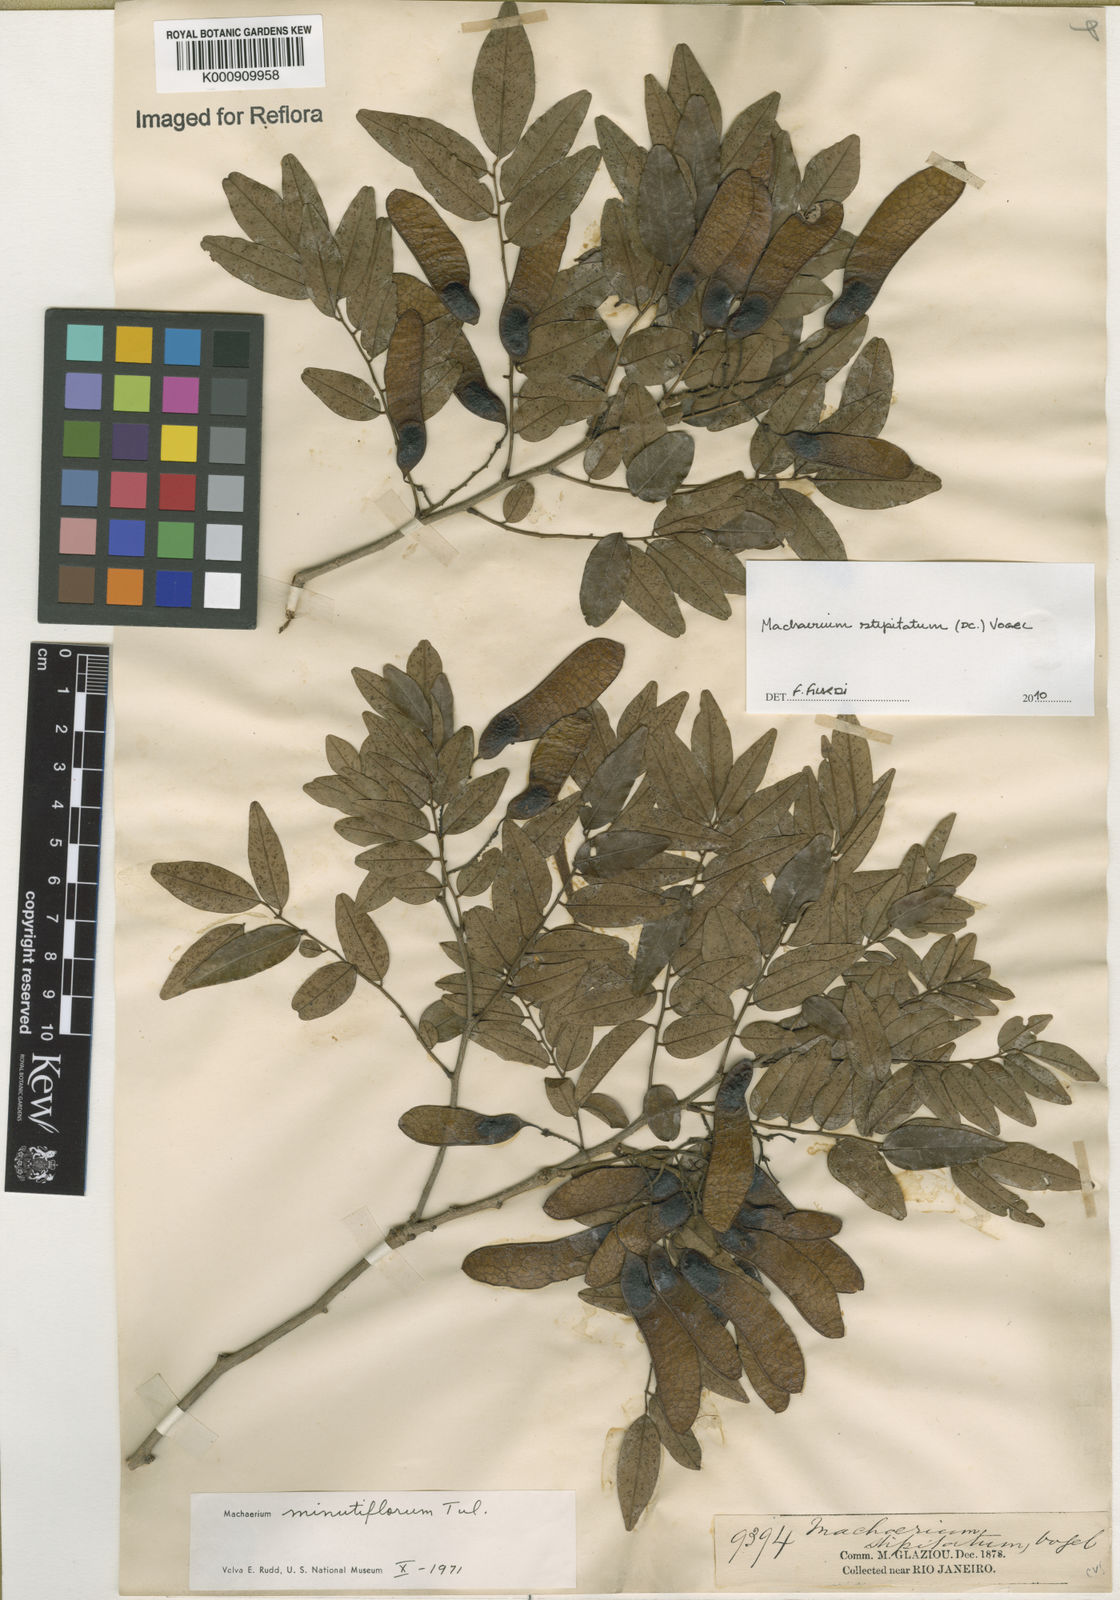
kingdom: Plantae
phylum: Tracheophyta
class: Magnoliopsida
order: Fabales
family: Fabaceae
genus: Machaerium
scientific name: Machaerium stipitatum
